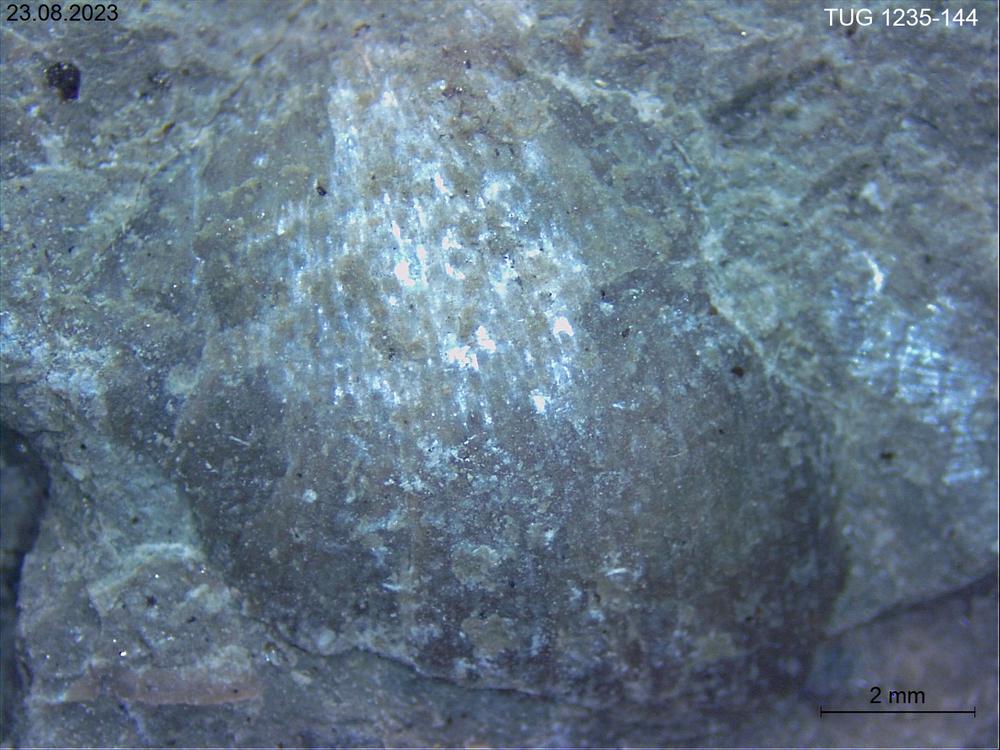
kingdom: Animalia
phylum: Brachiopoda
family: Oldhaminidae
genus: Eoplectodonta
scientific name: Eoplectodonta
